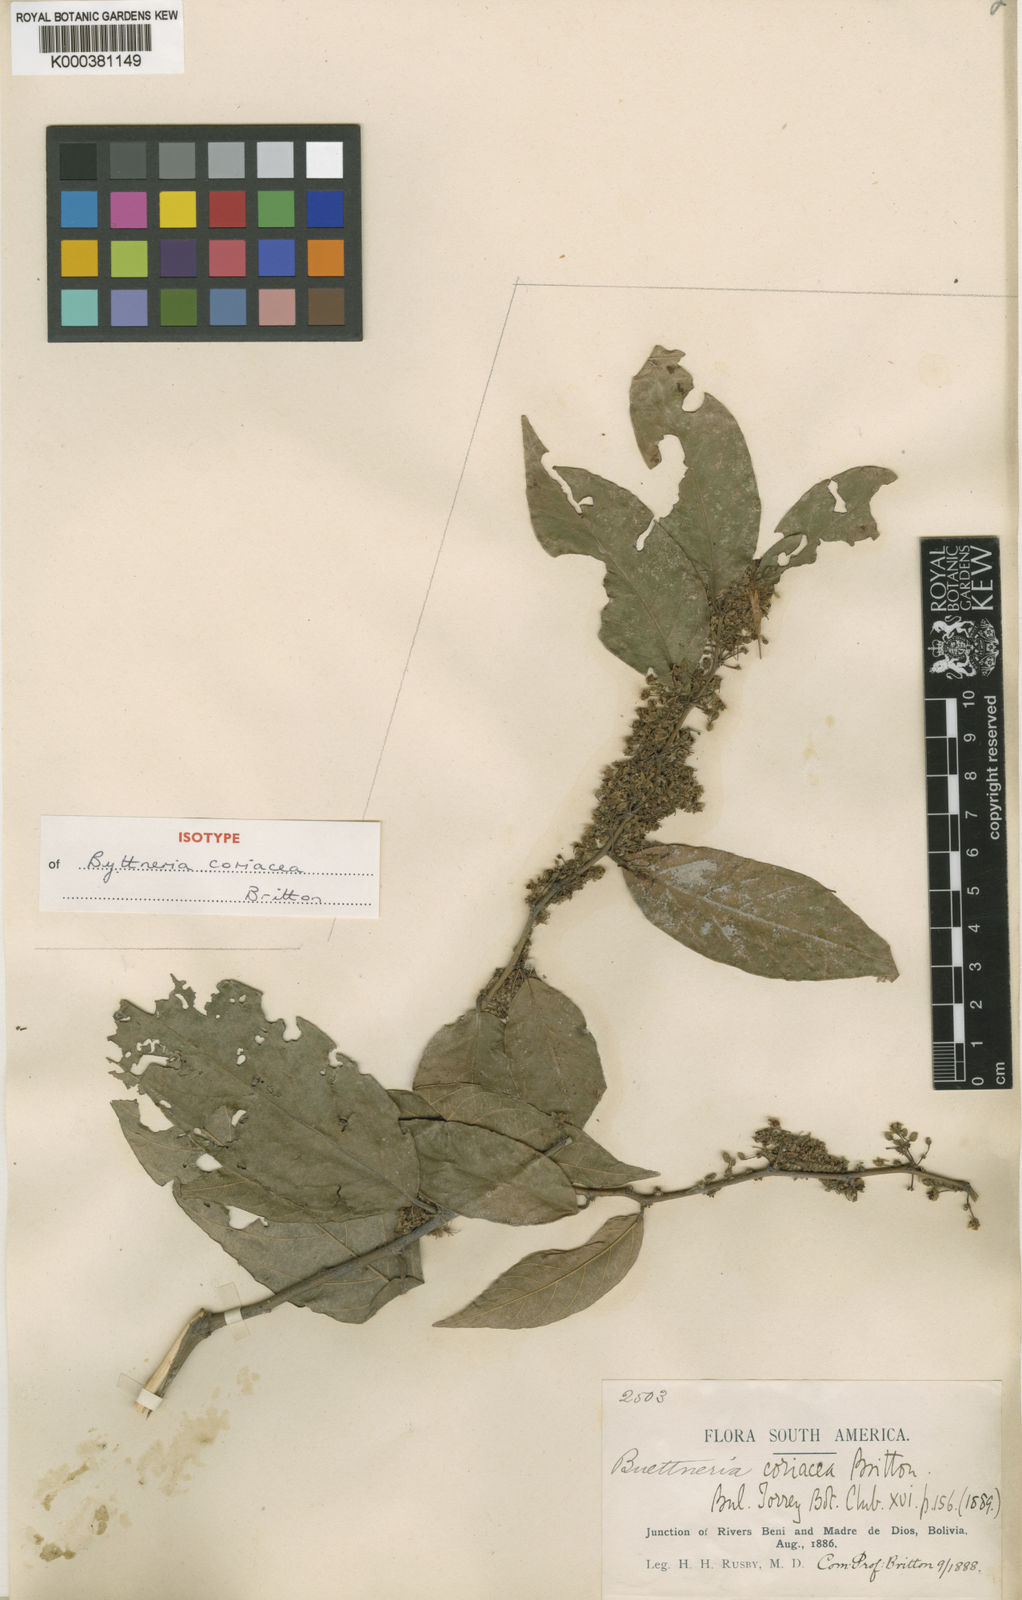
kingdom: Plantae
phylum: Tracheophyta
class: Magnoliopsida
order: Malvales
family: Malvaceae
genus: Byttneria
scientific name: Byttneria coriacea
